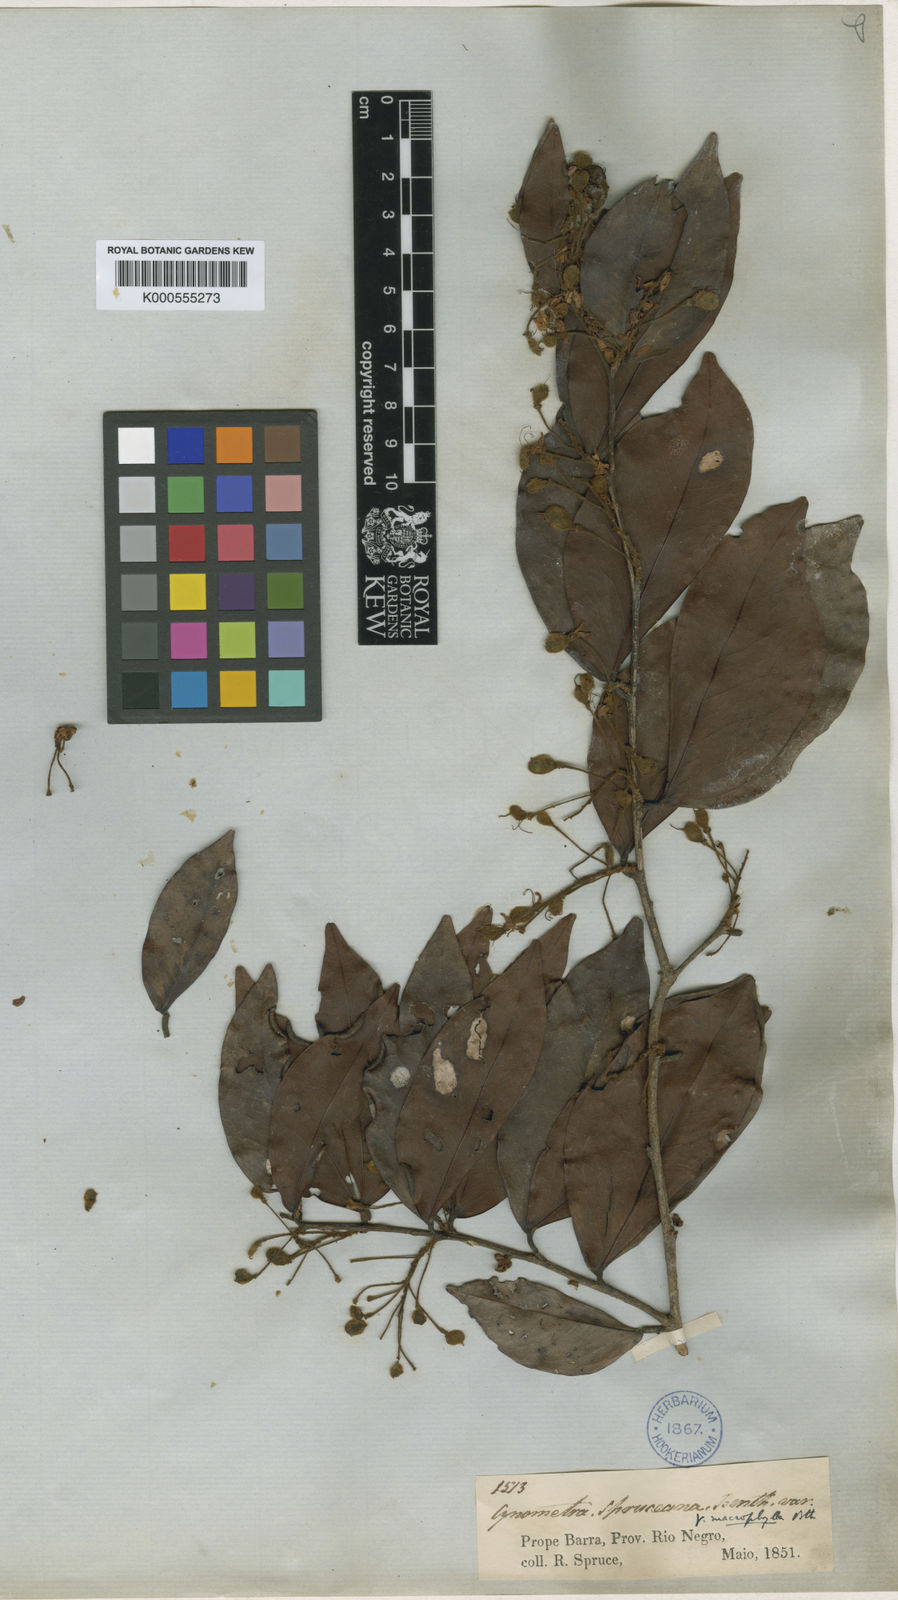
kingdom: Plantae
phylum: Tracheophyta
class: Magnoliopsida
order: Fabales
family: Fabaceae
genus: Cynometra
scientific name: Cynometra phaselocarpa
